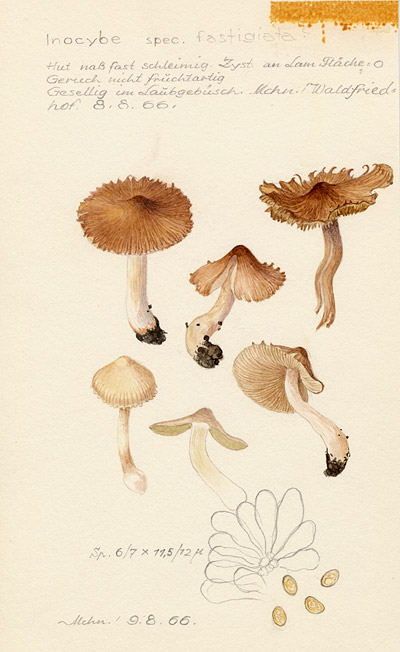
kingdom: Fungi
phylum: Basidiomycota
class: Agaricomycetes
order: Agaricales
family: Inocybaceae
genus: Pseudosperma
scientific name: Pseudosperma rimosum
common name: Split fibrecap
